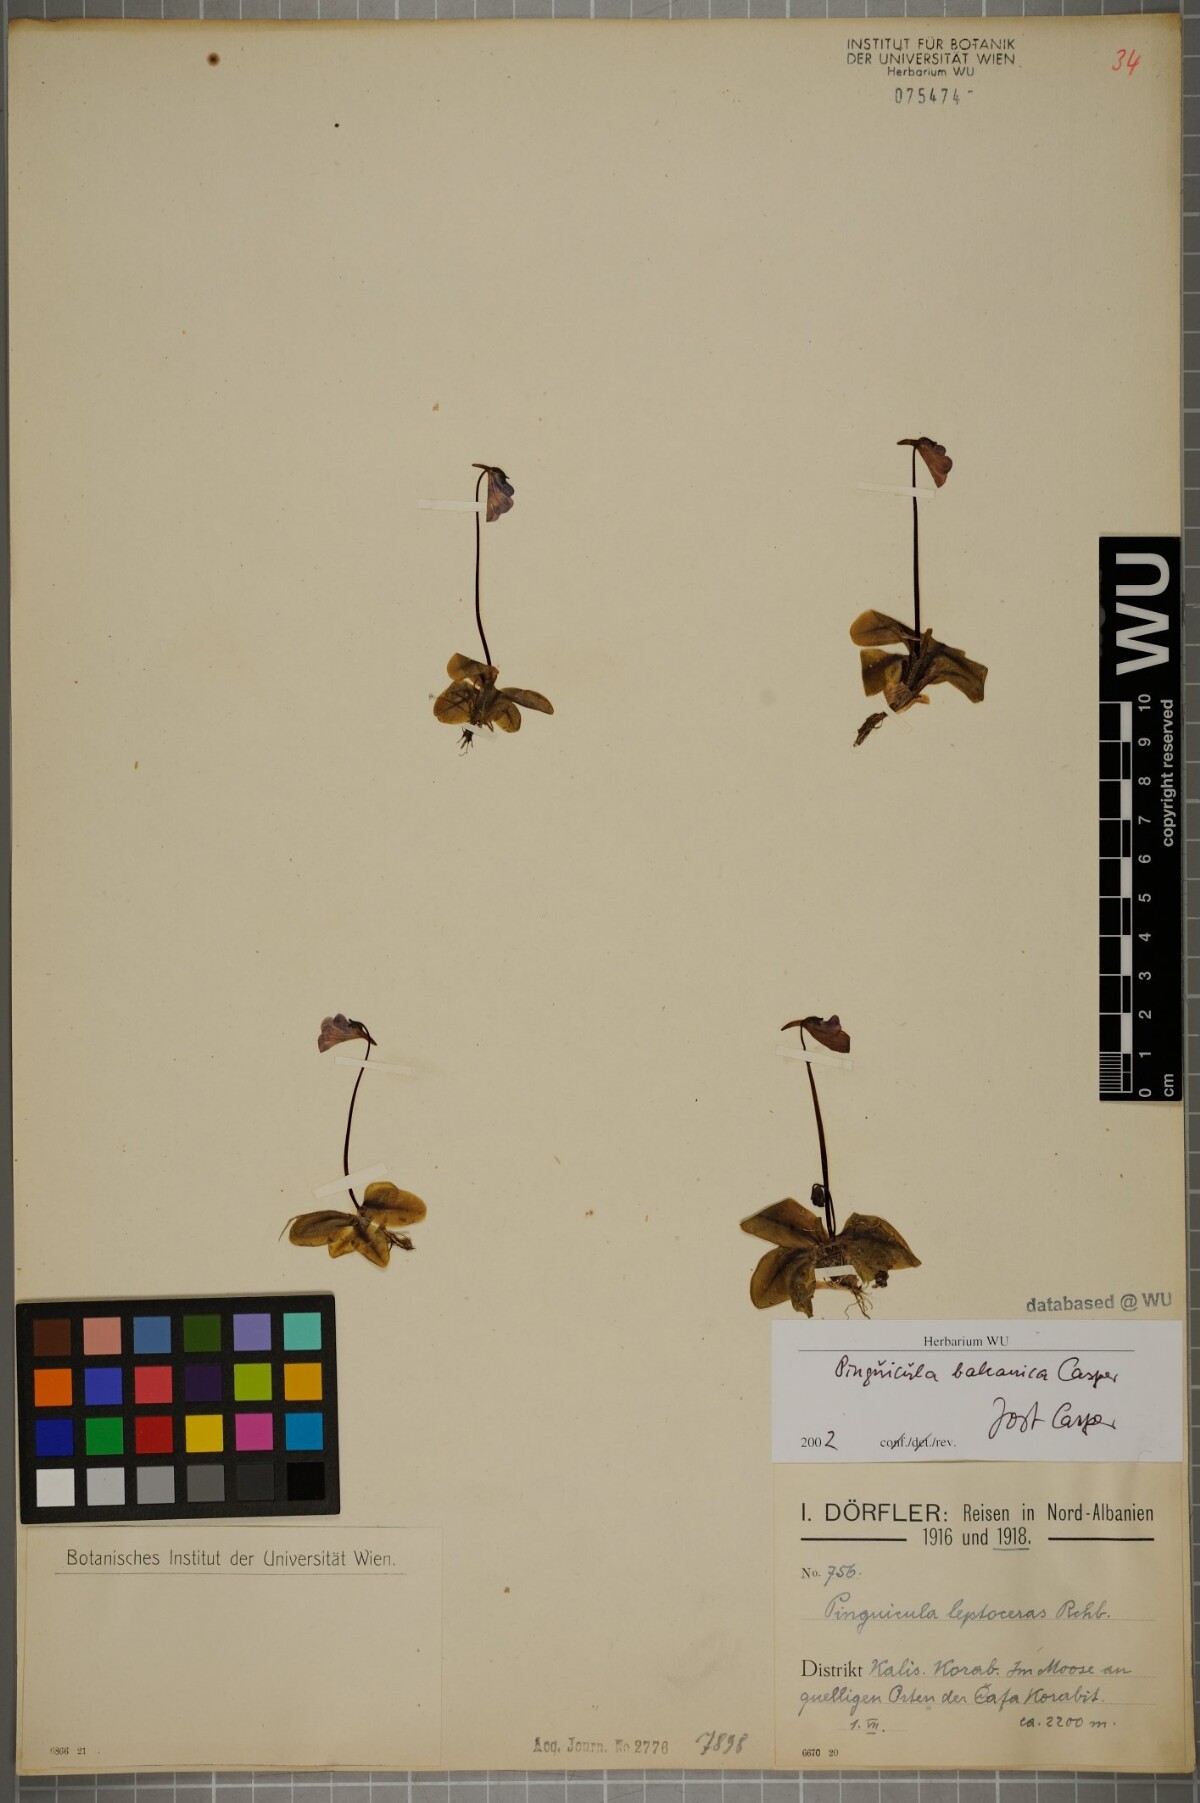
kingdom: Plantae
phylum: Tracheophyta
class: Magnoliopsida
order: Lamiales
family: Lentibulariaceae
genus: Pinguicula
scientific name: Pinguicula balcanica
